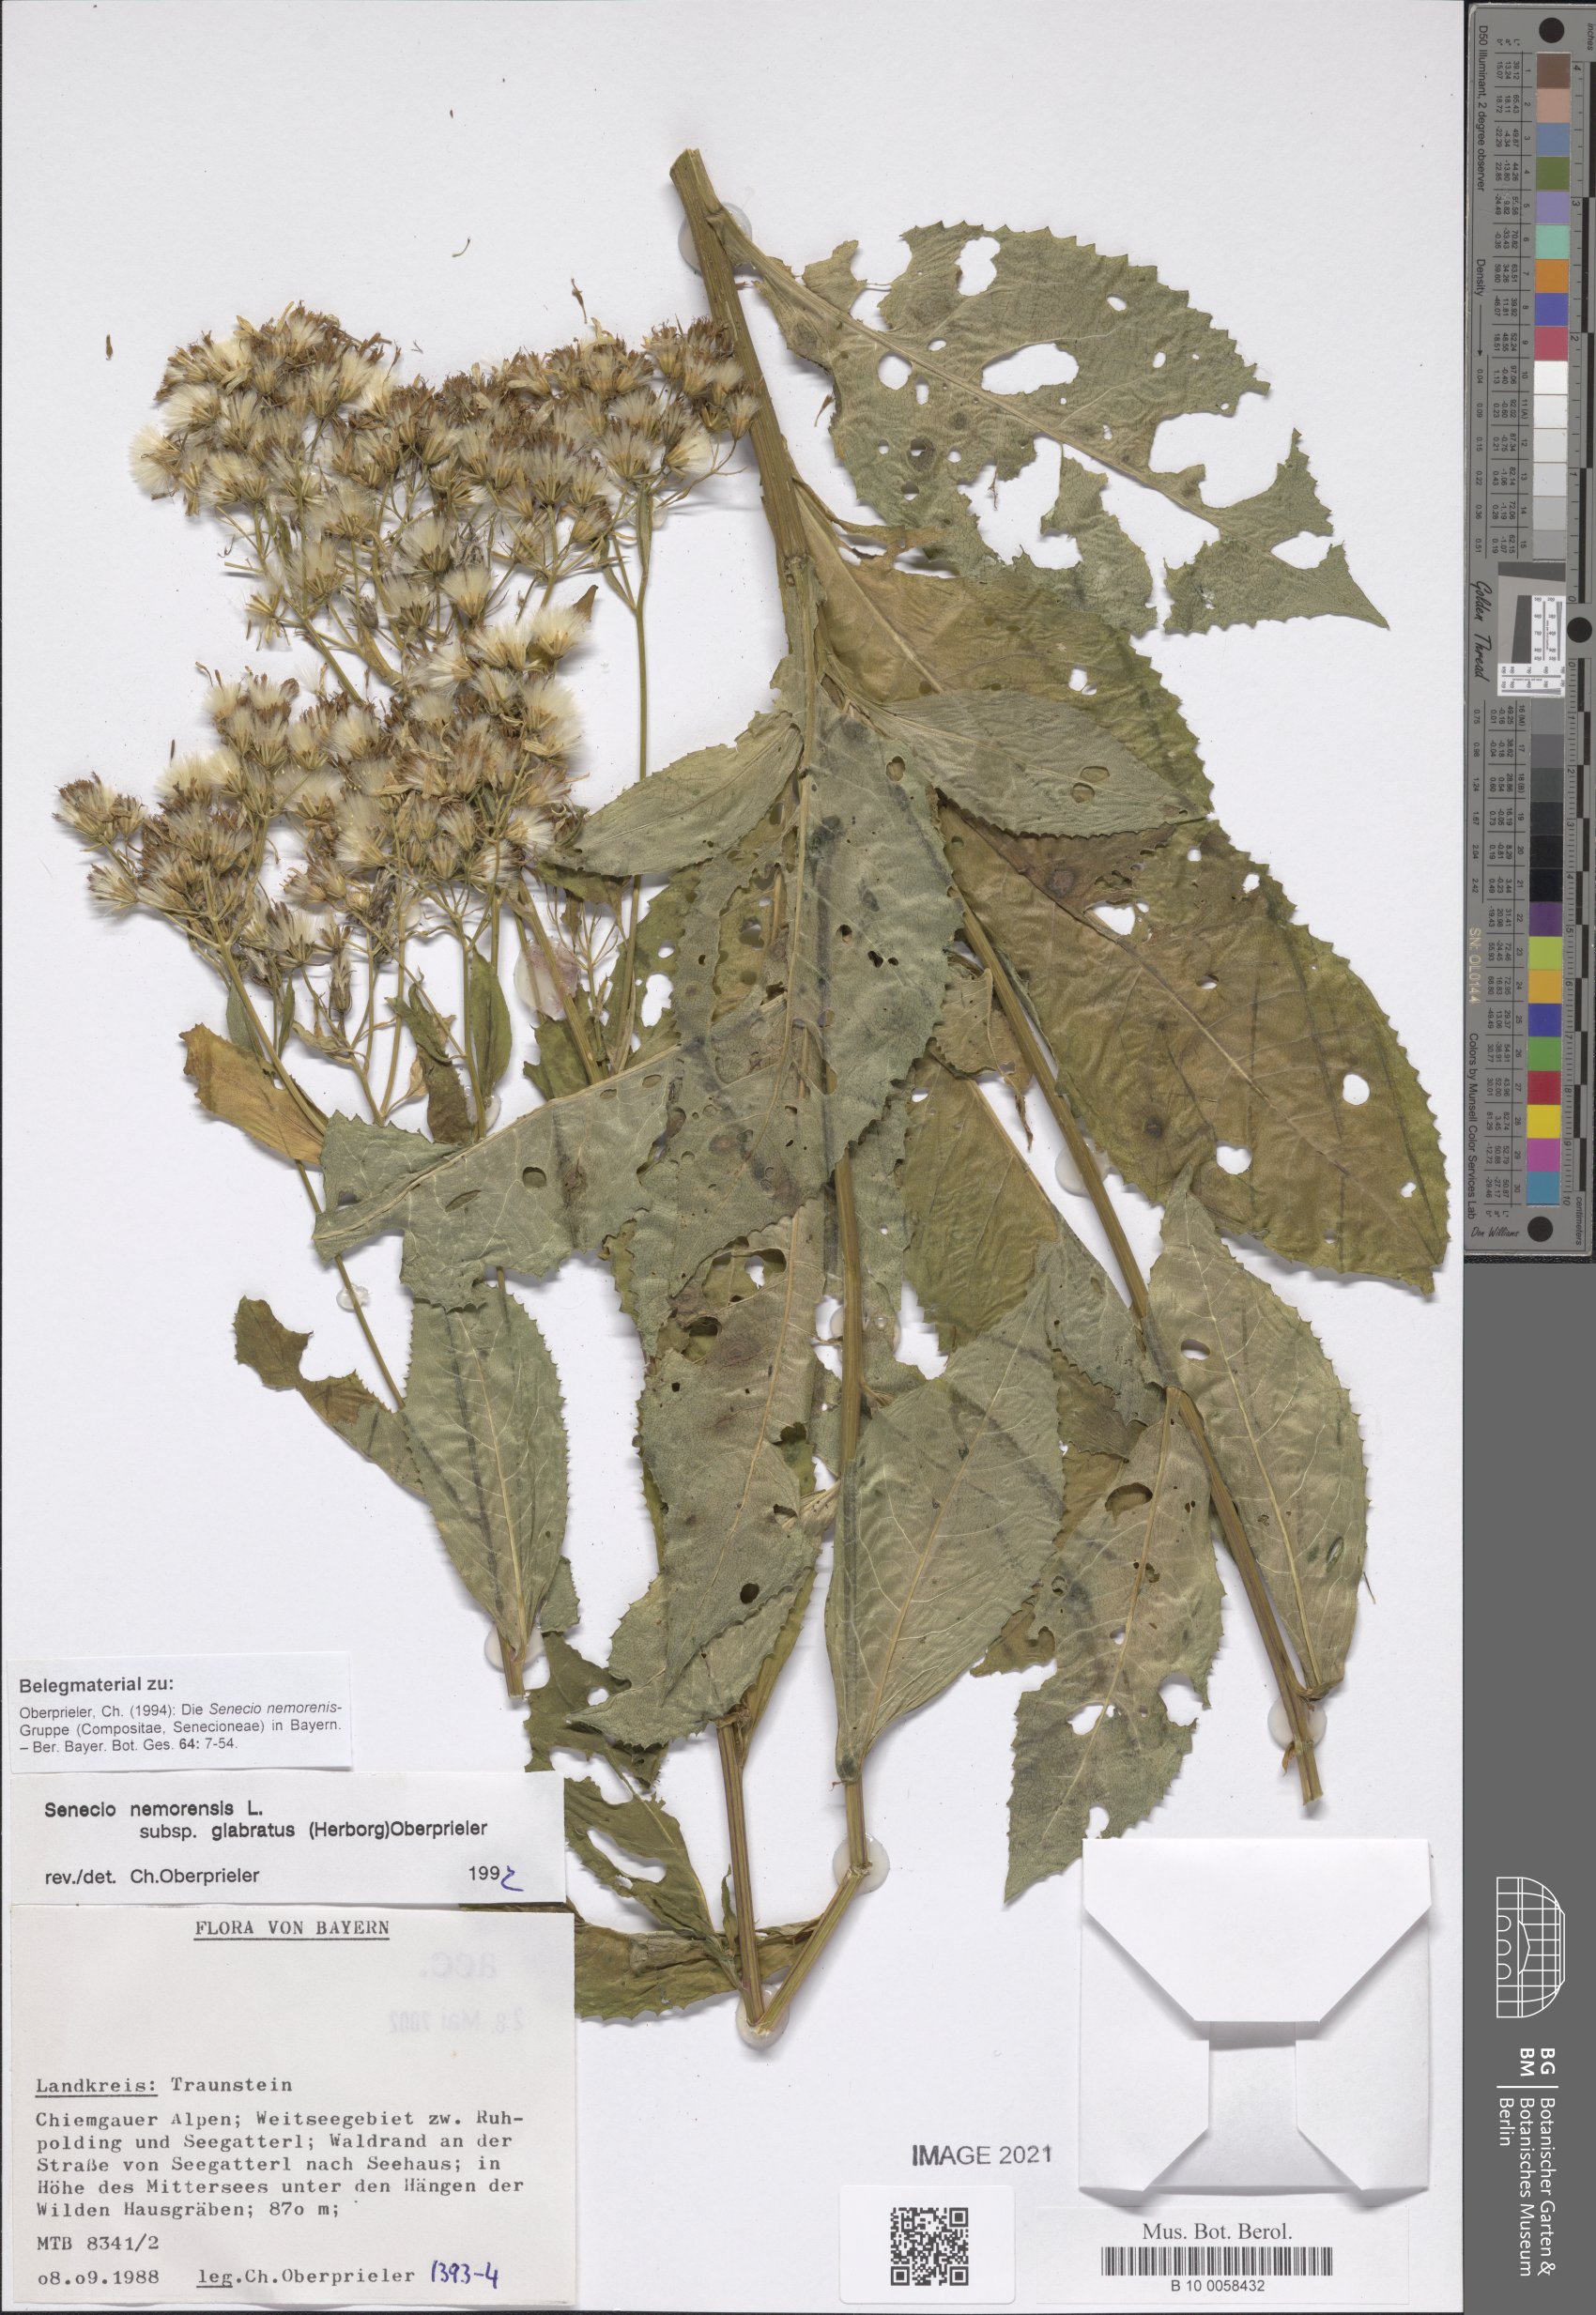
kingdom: Plantae
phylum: Tracheophyta
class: Magnoliopsida
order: Asterales
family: Asteraceae
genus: Senecio
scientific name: Senecio germanicus
